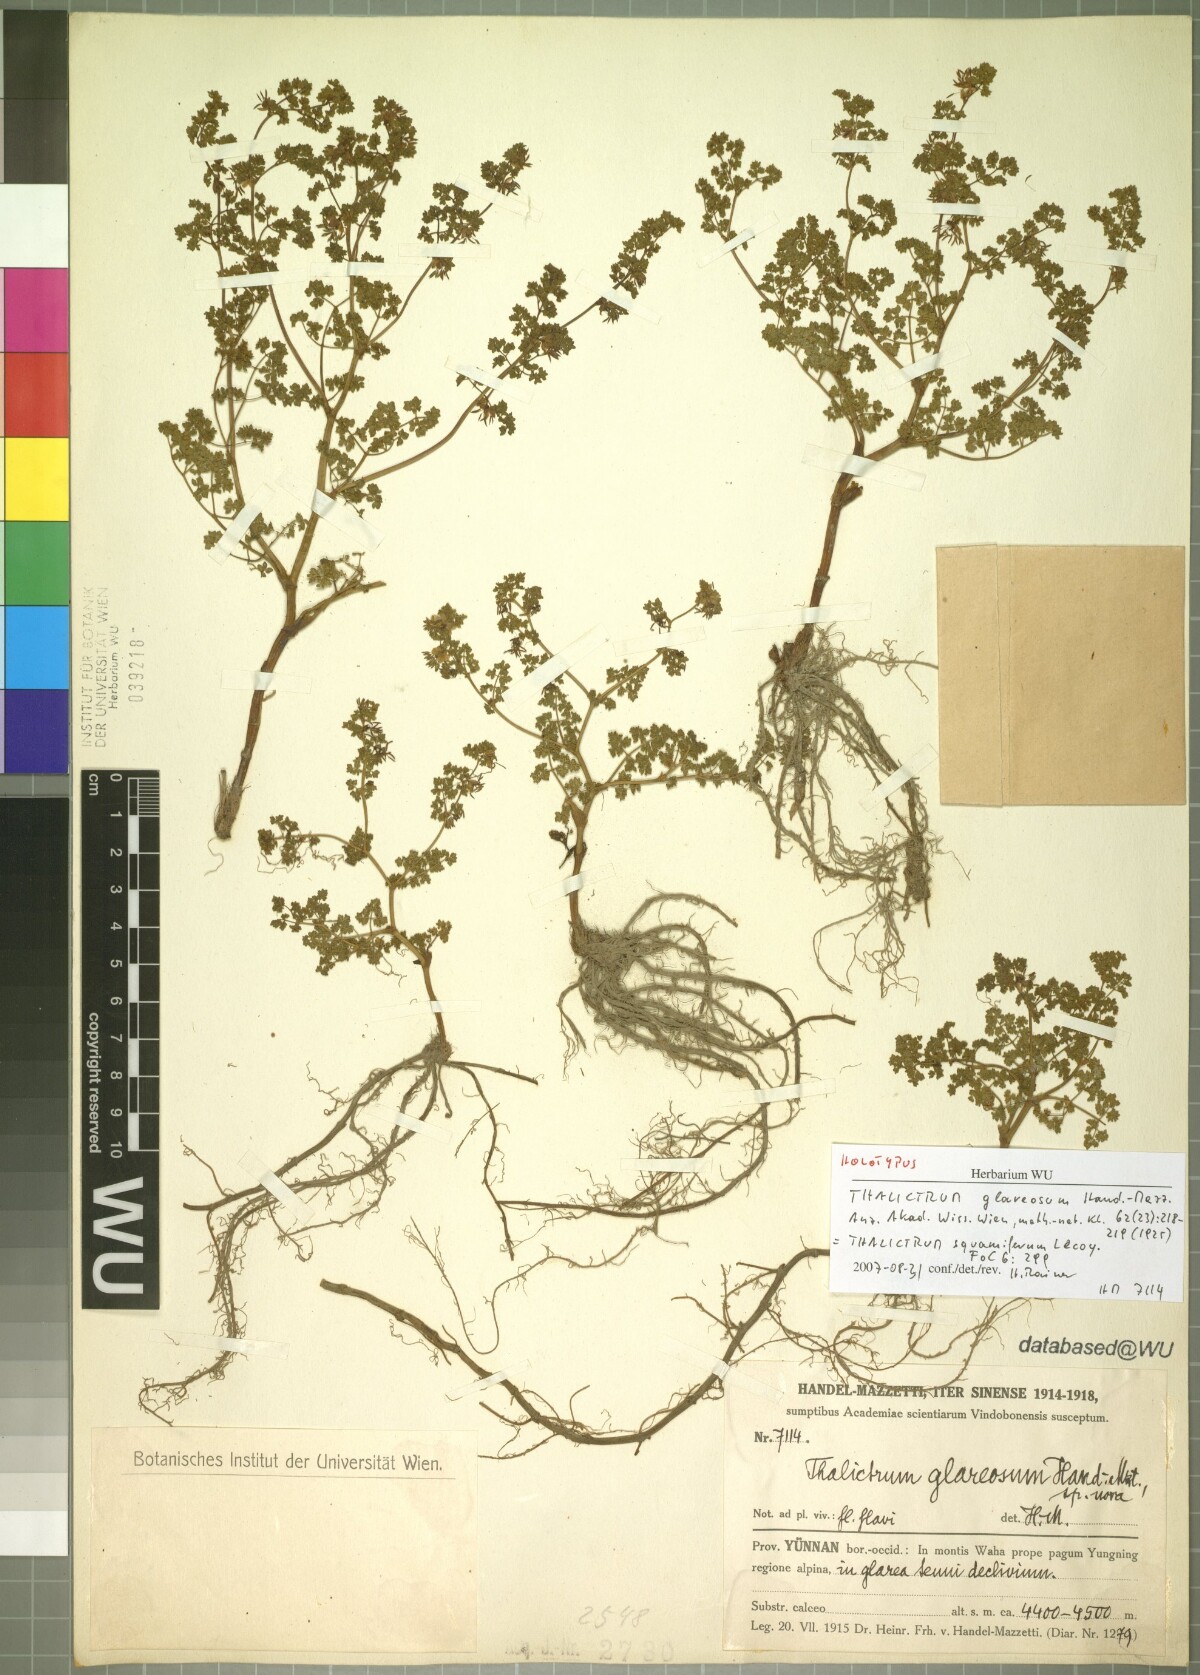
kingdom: Plantae
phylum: Tracheophyta
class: Magnoliopsida
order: Ranunculales
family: Ranunculaceae
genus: Thalictrum
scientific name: Thalictrum squamiferum
